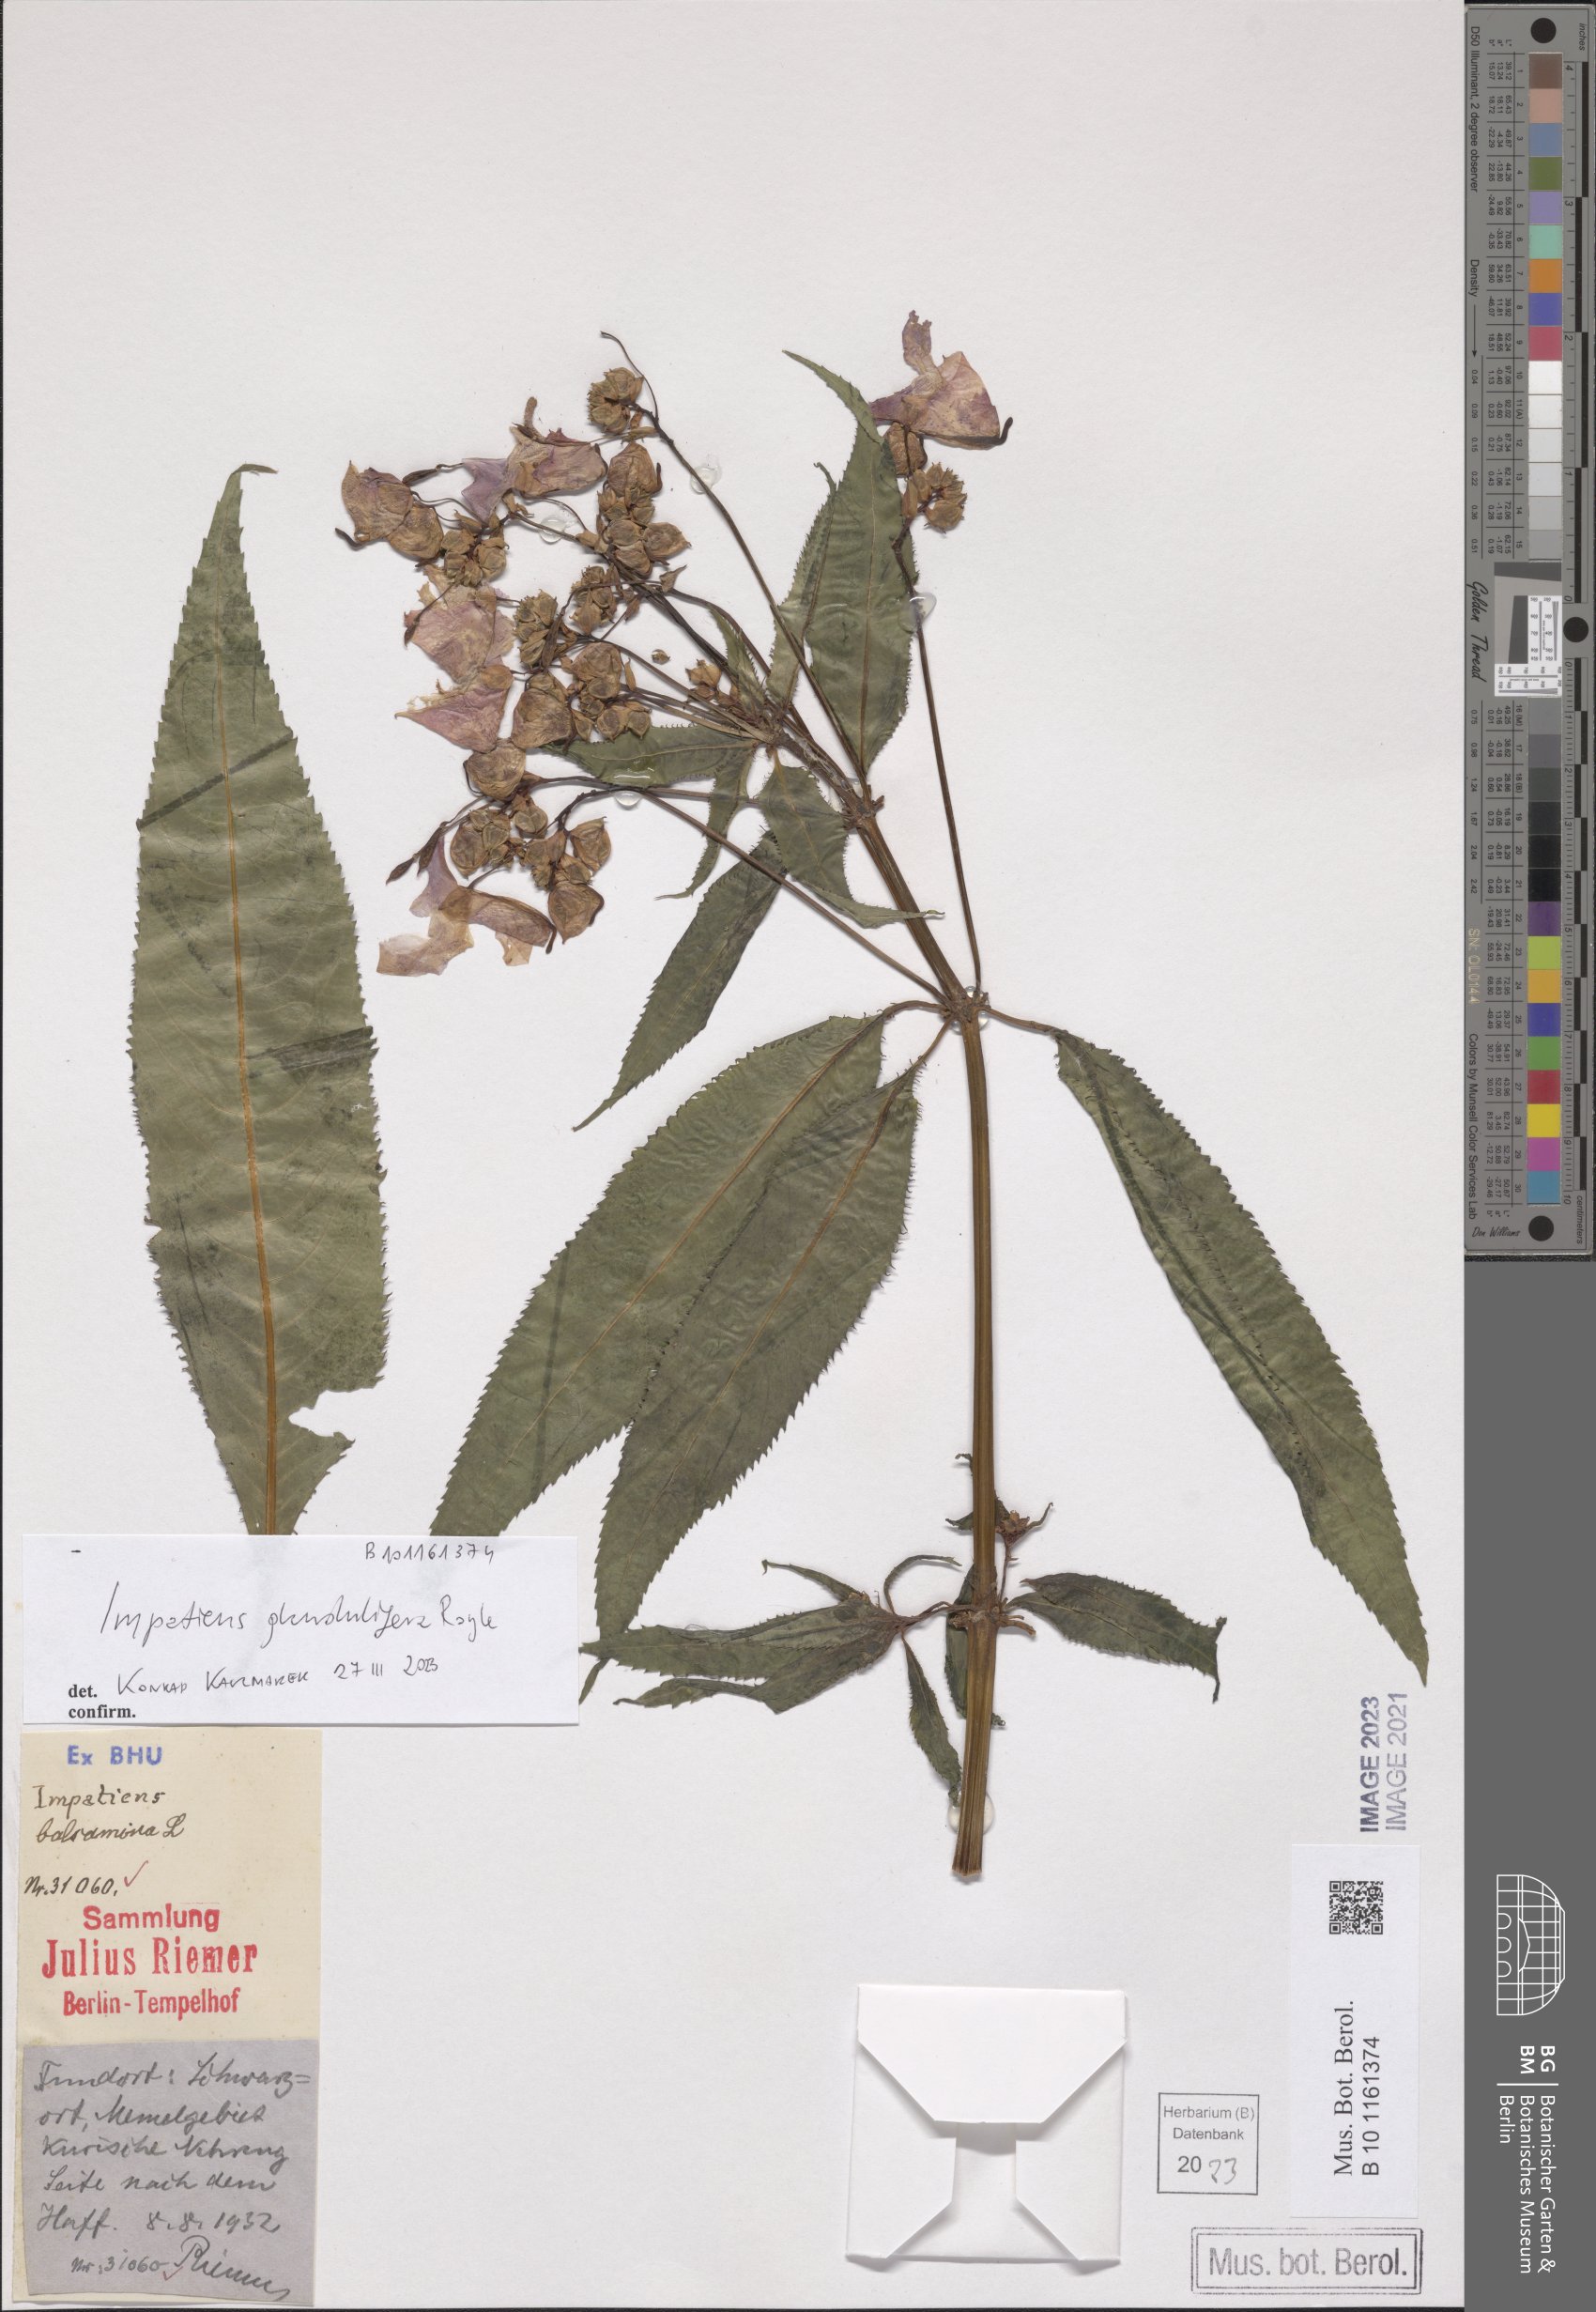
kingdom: Plantae
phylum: Tracheophyta
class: Magnoliopsida
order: Ericales
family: Balsaminaceae
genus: Impatiens
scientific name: Impatiens glandulifera
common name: Himalayan balsam
